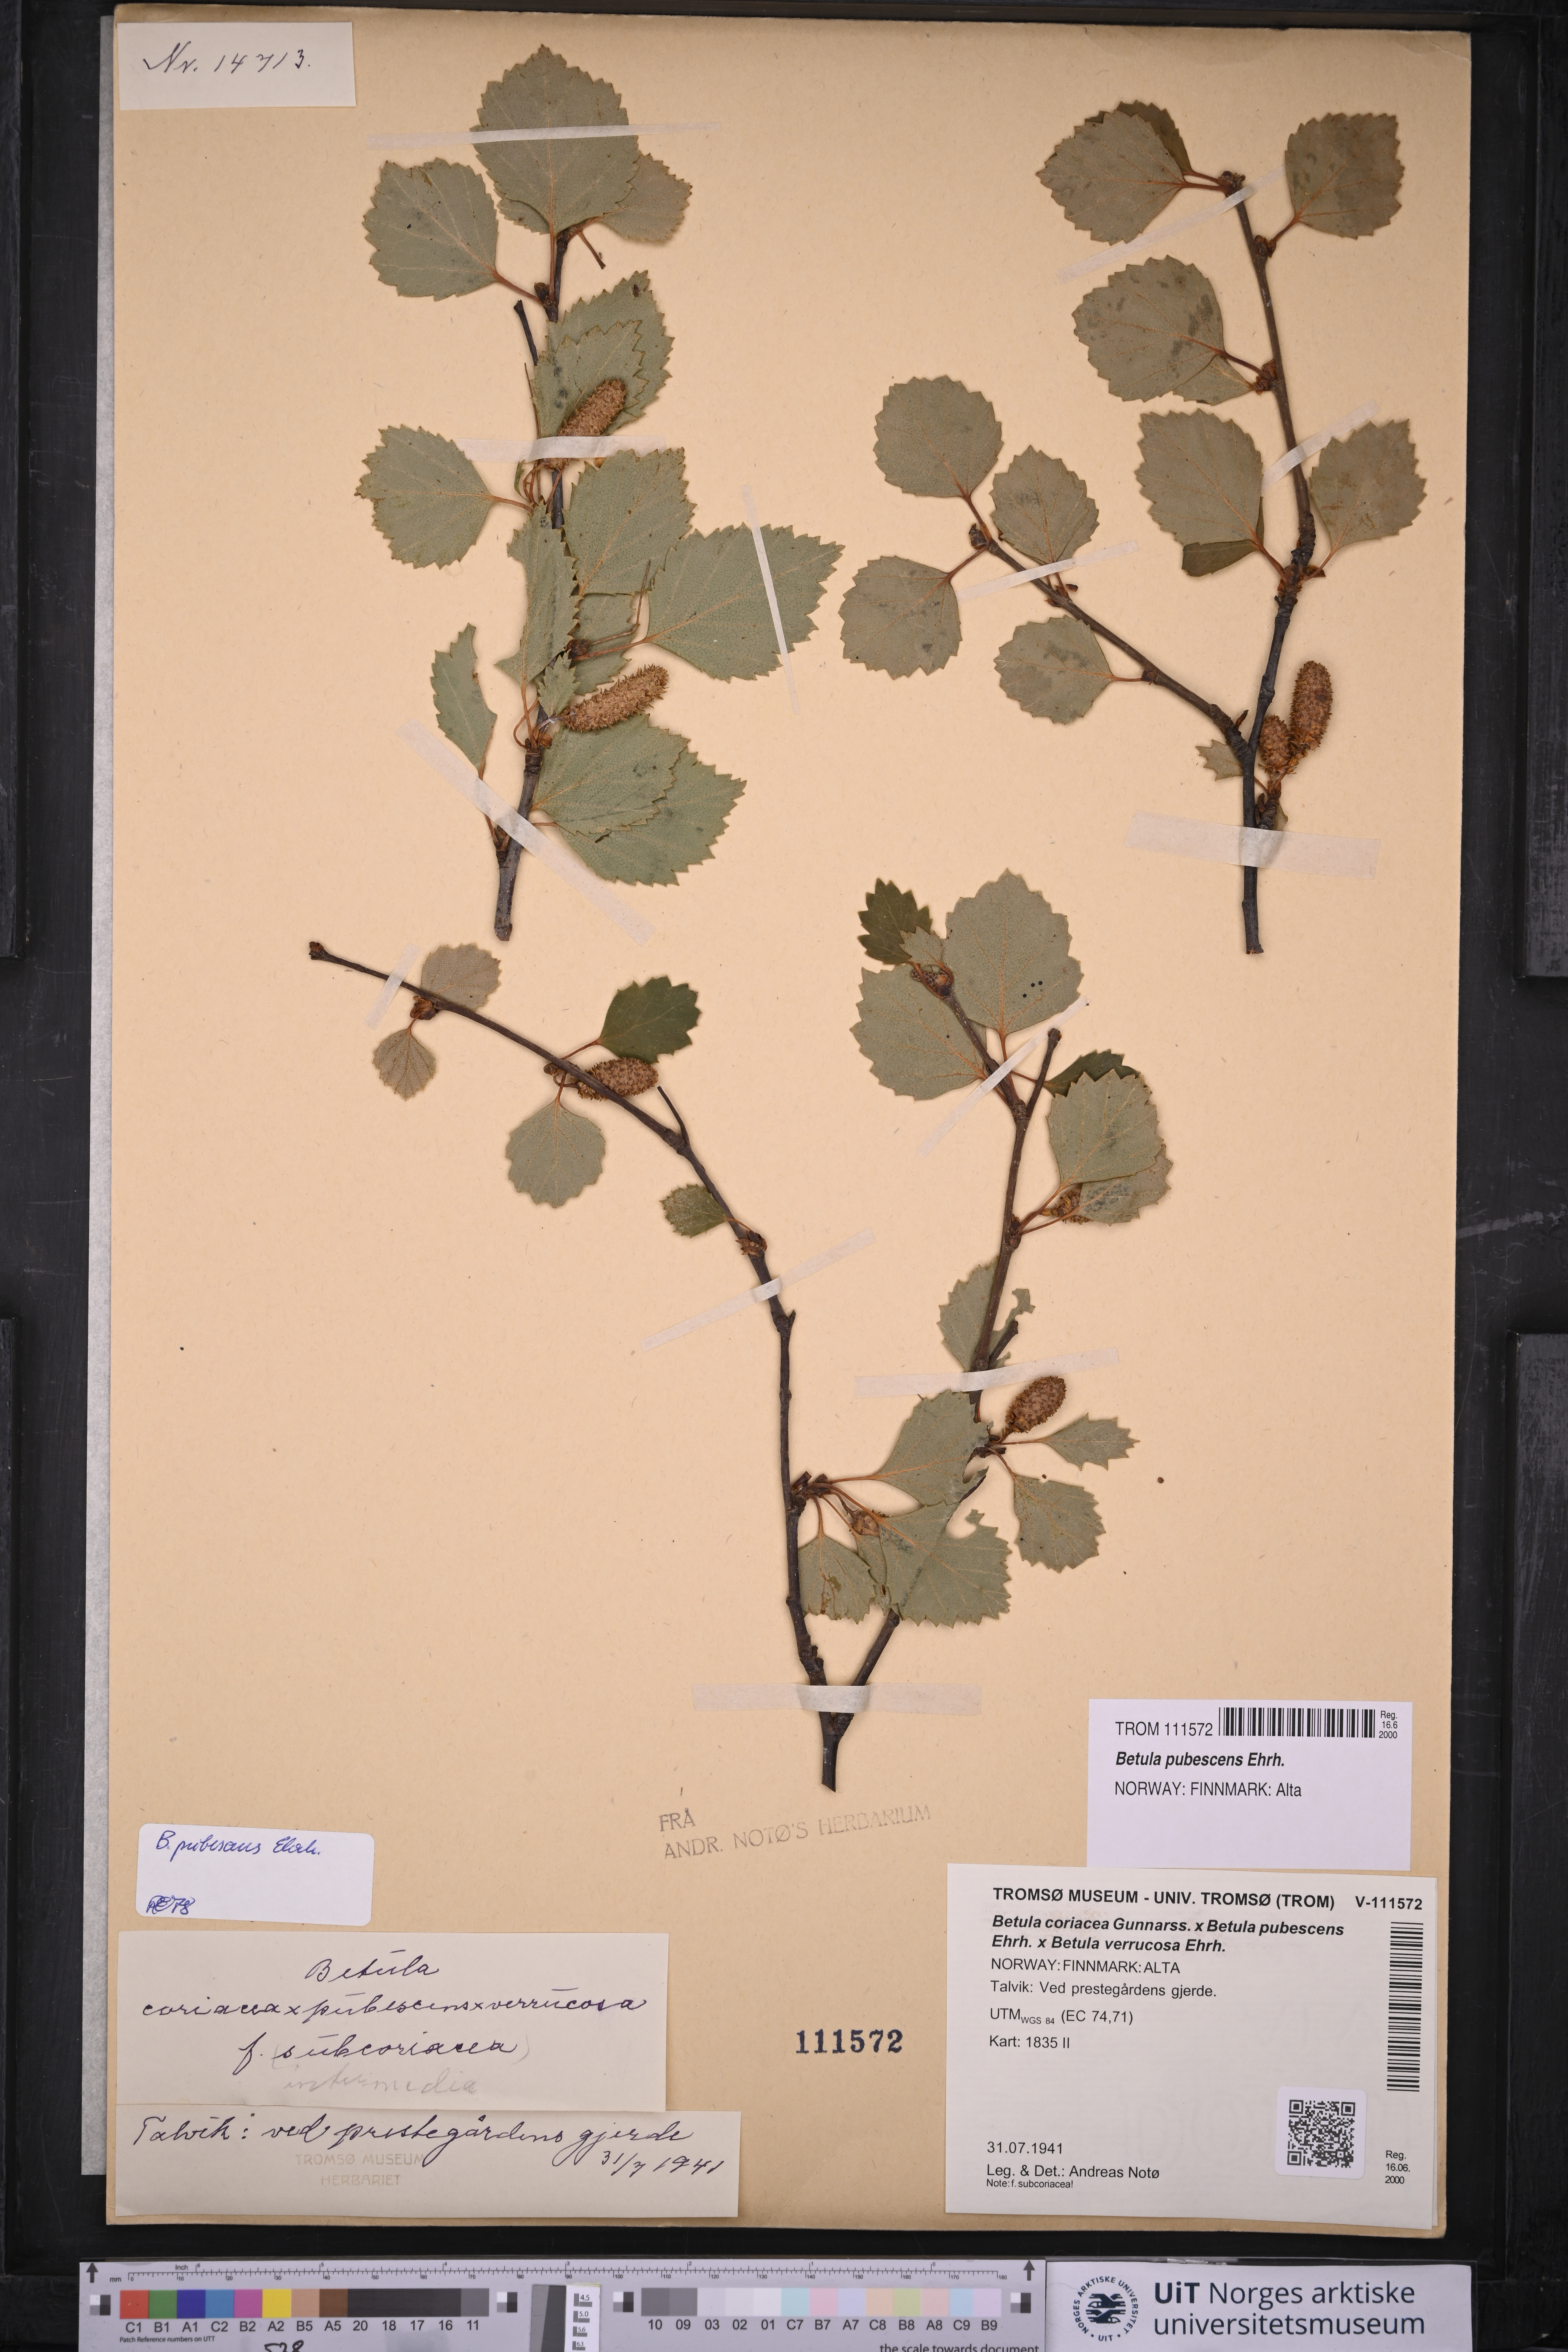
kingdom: Plantae
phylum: Tracheophyta
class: Magnoliopsida
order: Fagales
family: Betulaceae
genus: Betula
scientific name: Betula pubescens
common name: Downy birch
